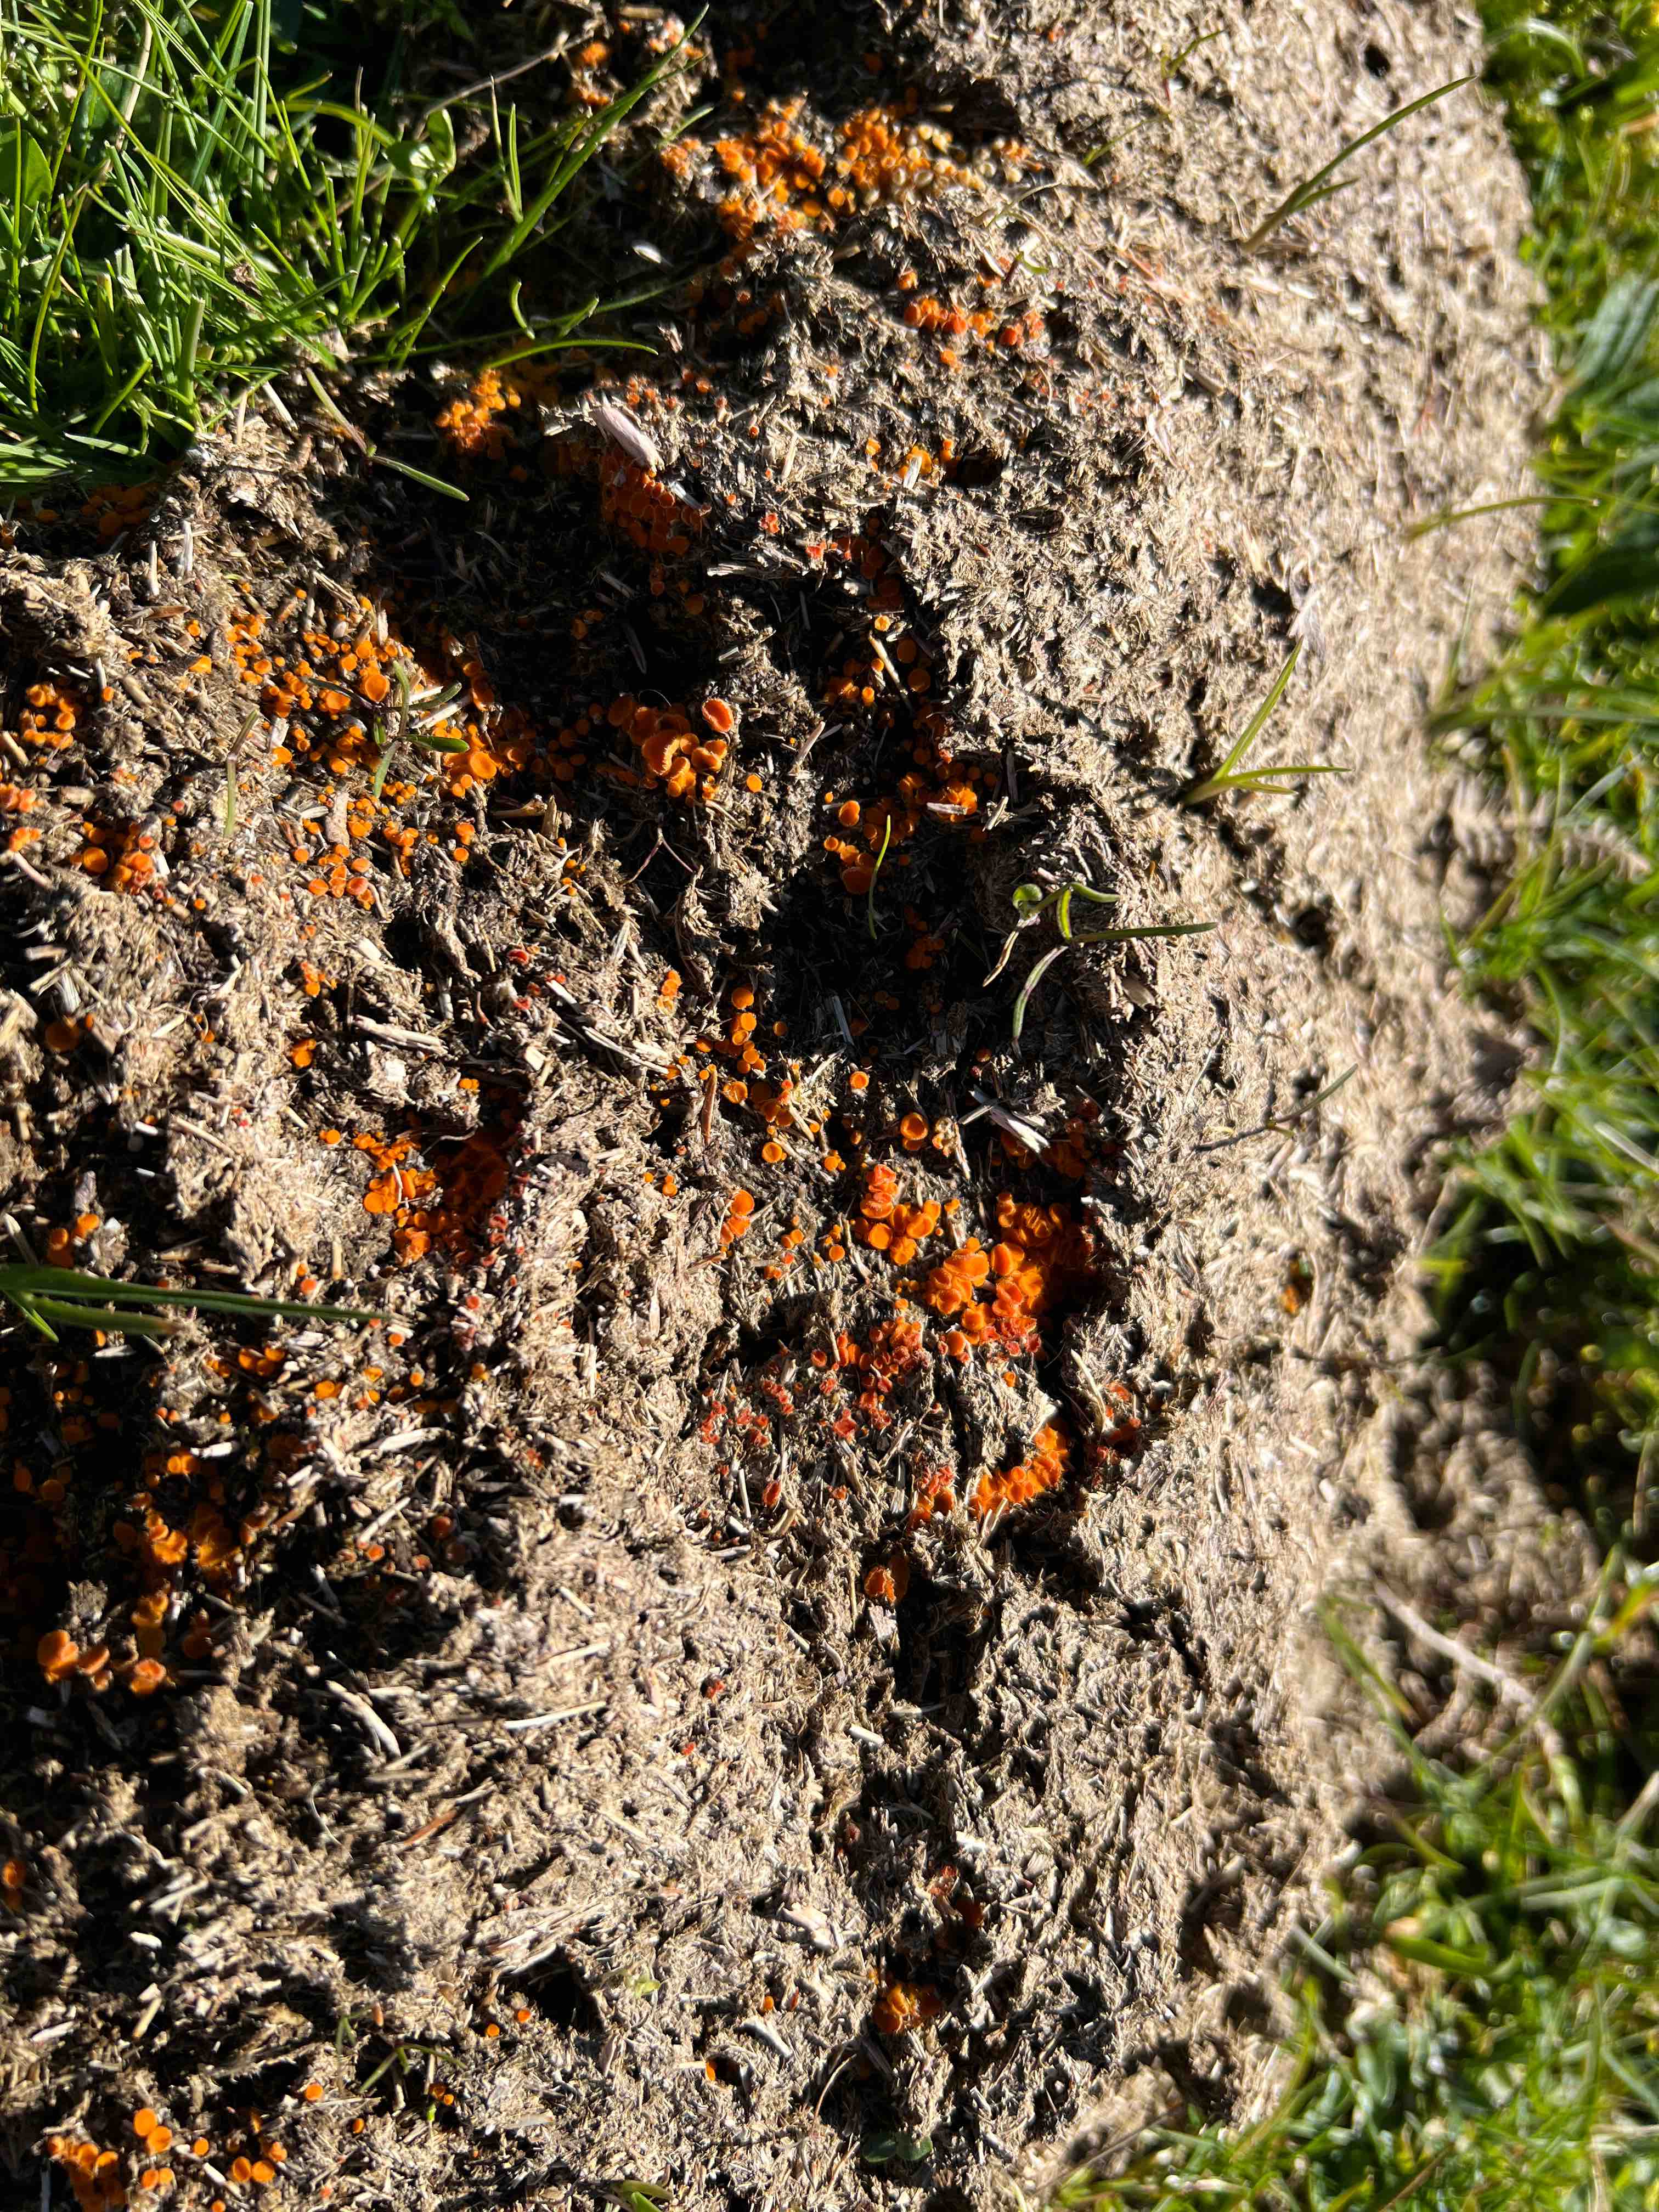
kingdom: Fungi
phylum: Ascomycota
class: Pezizomycetes
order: Pezizales
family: Pyronemataceae
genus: Cheilymenia
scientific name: Cheilymenia
